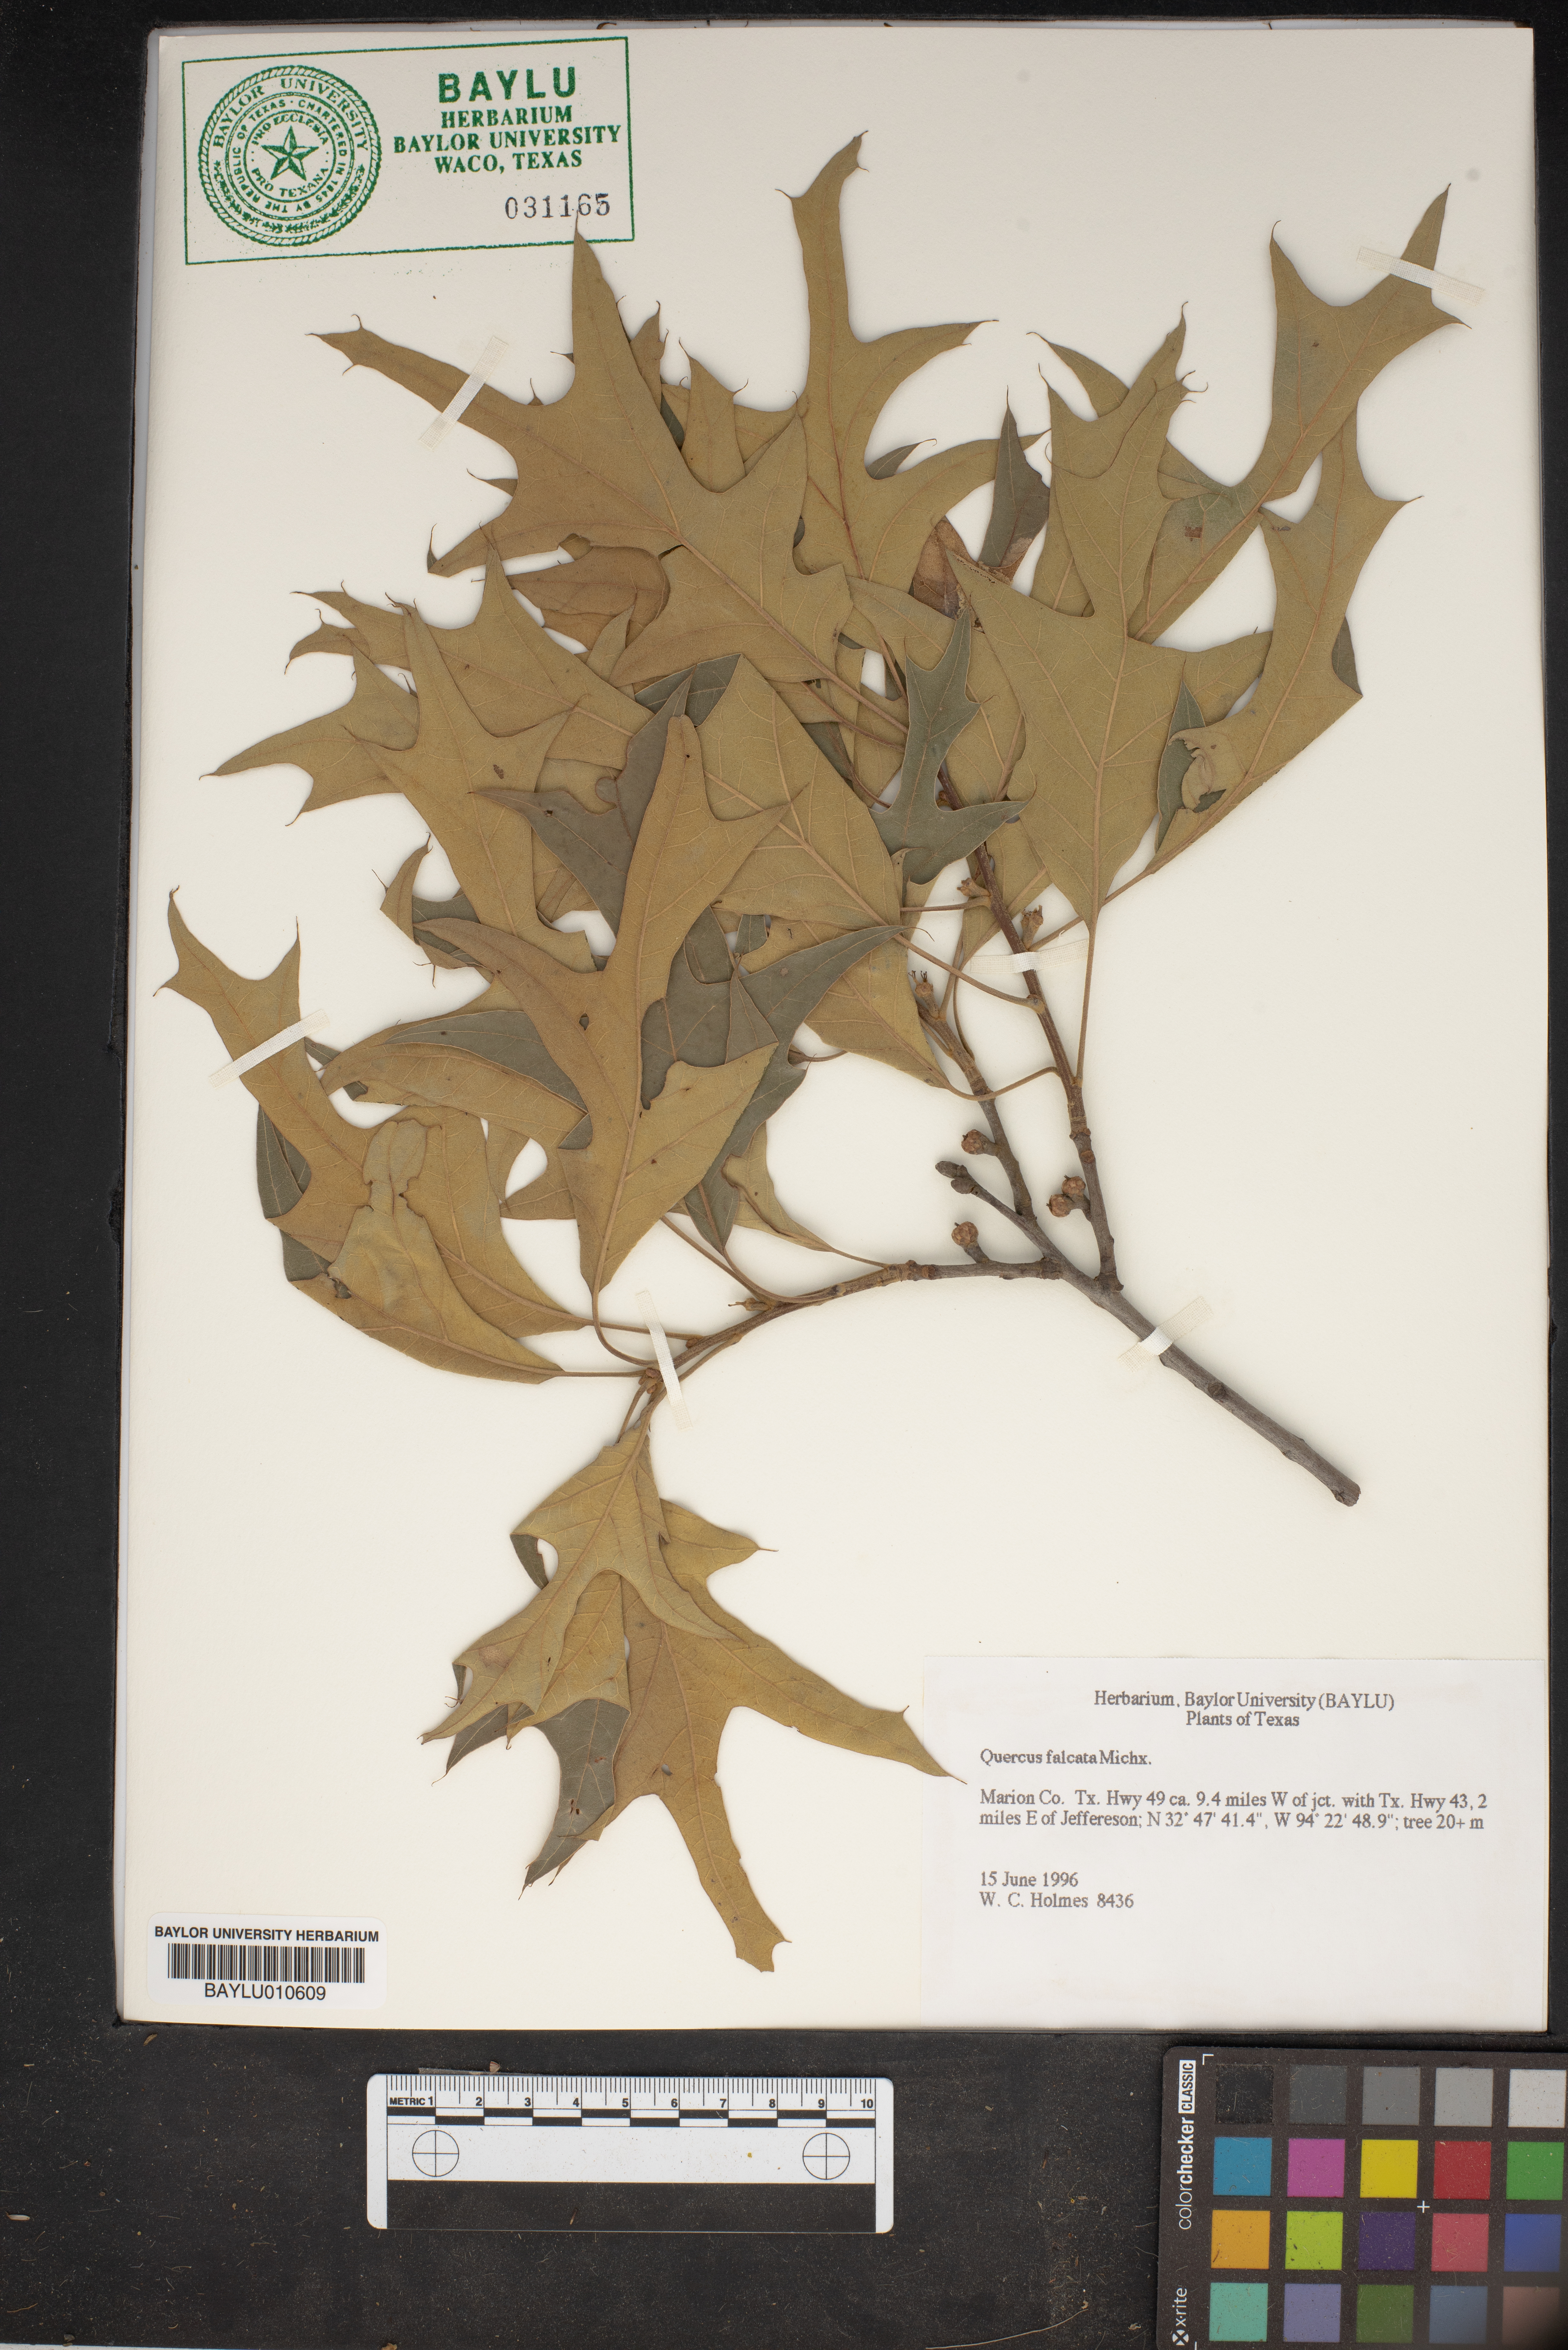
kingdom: Plantae
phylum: Tracheophyta
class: Magnoliopsida
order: Fagales
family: Fagaceae
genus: Quercus
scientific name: Quercus falcata
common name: Southern red oak
